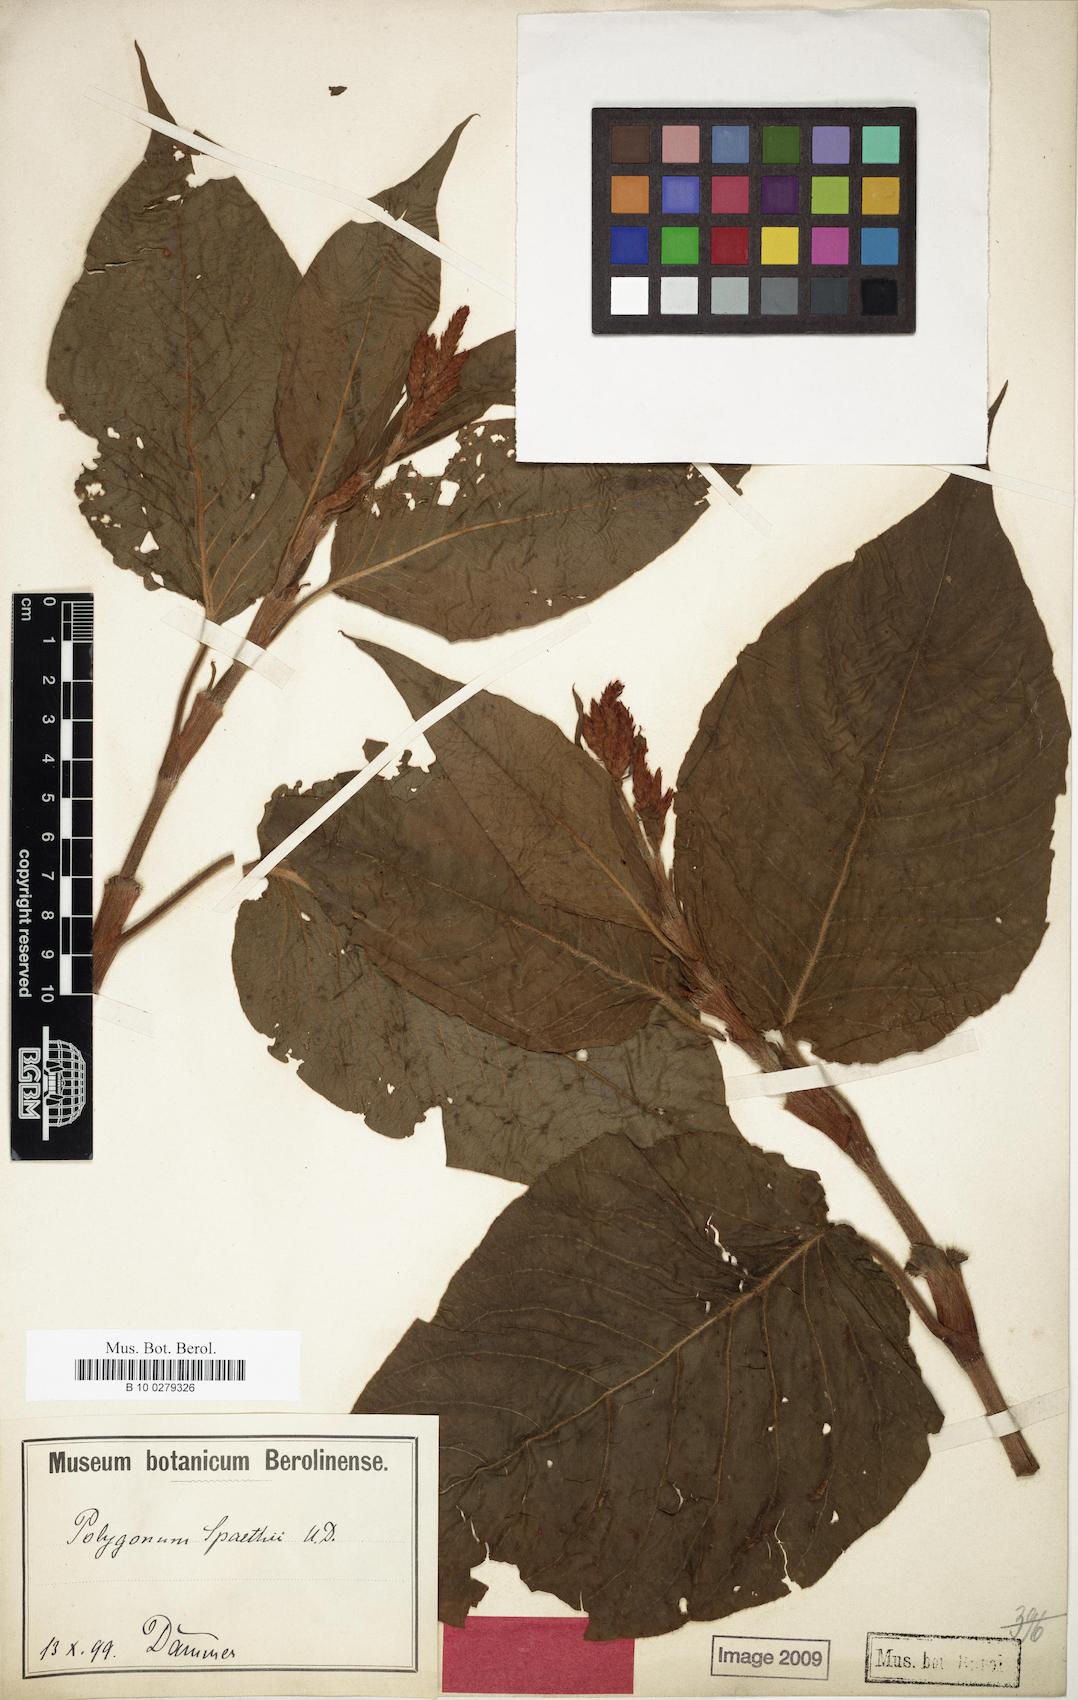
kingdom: Plantae
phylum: Tracheophyta
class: Magnoliopsida
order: Caryophyllales
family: Polygonaceae
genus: Persicaria
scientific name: Persicaria orientalis
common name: Kiss-me-over-the-garden-gate
